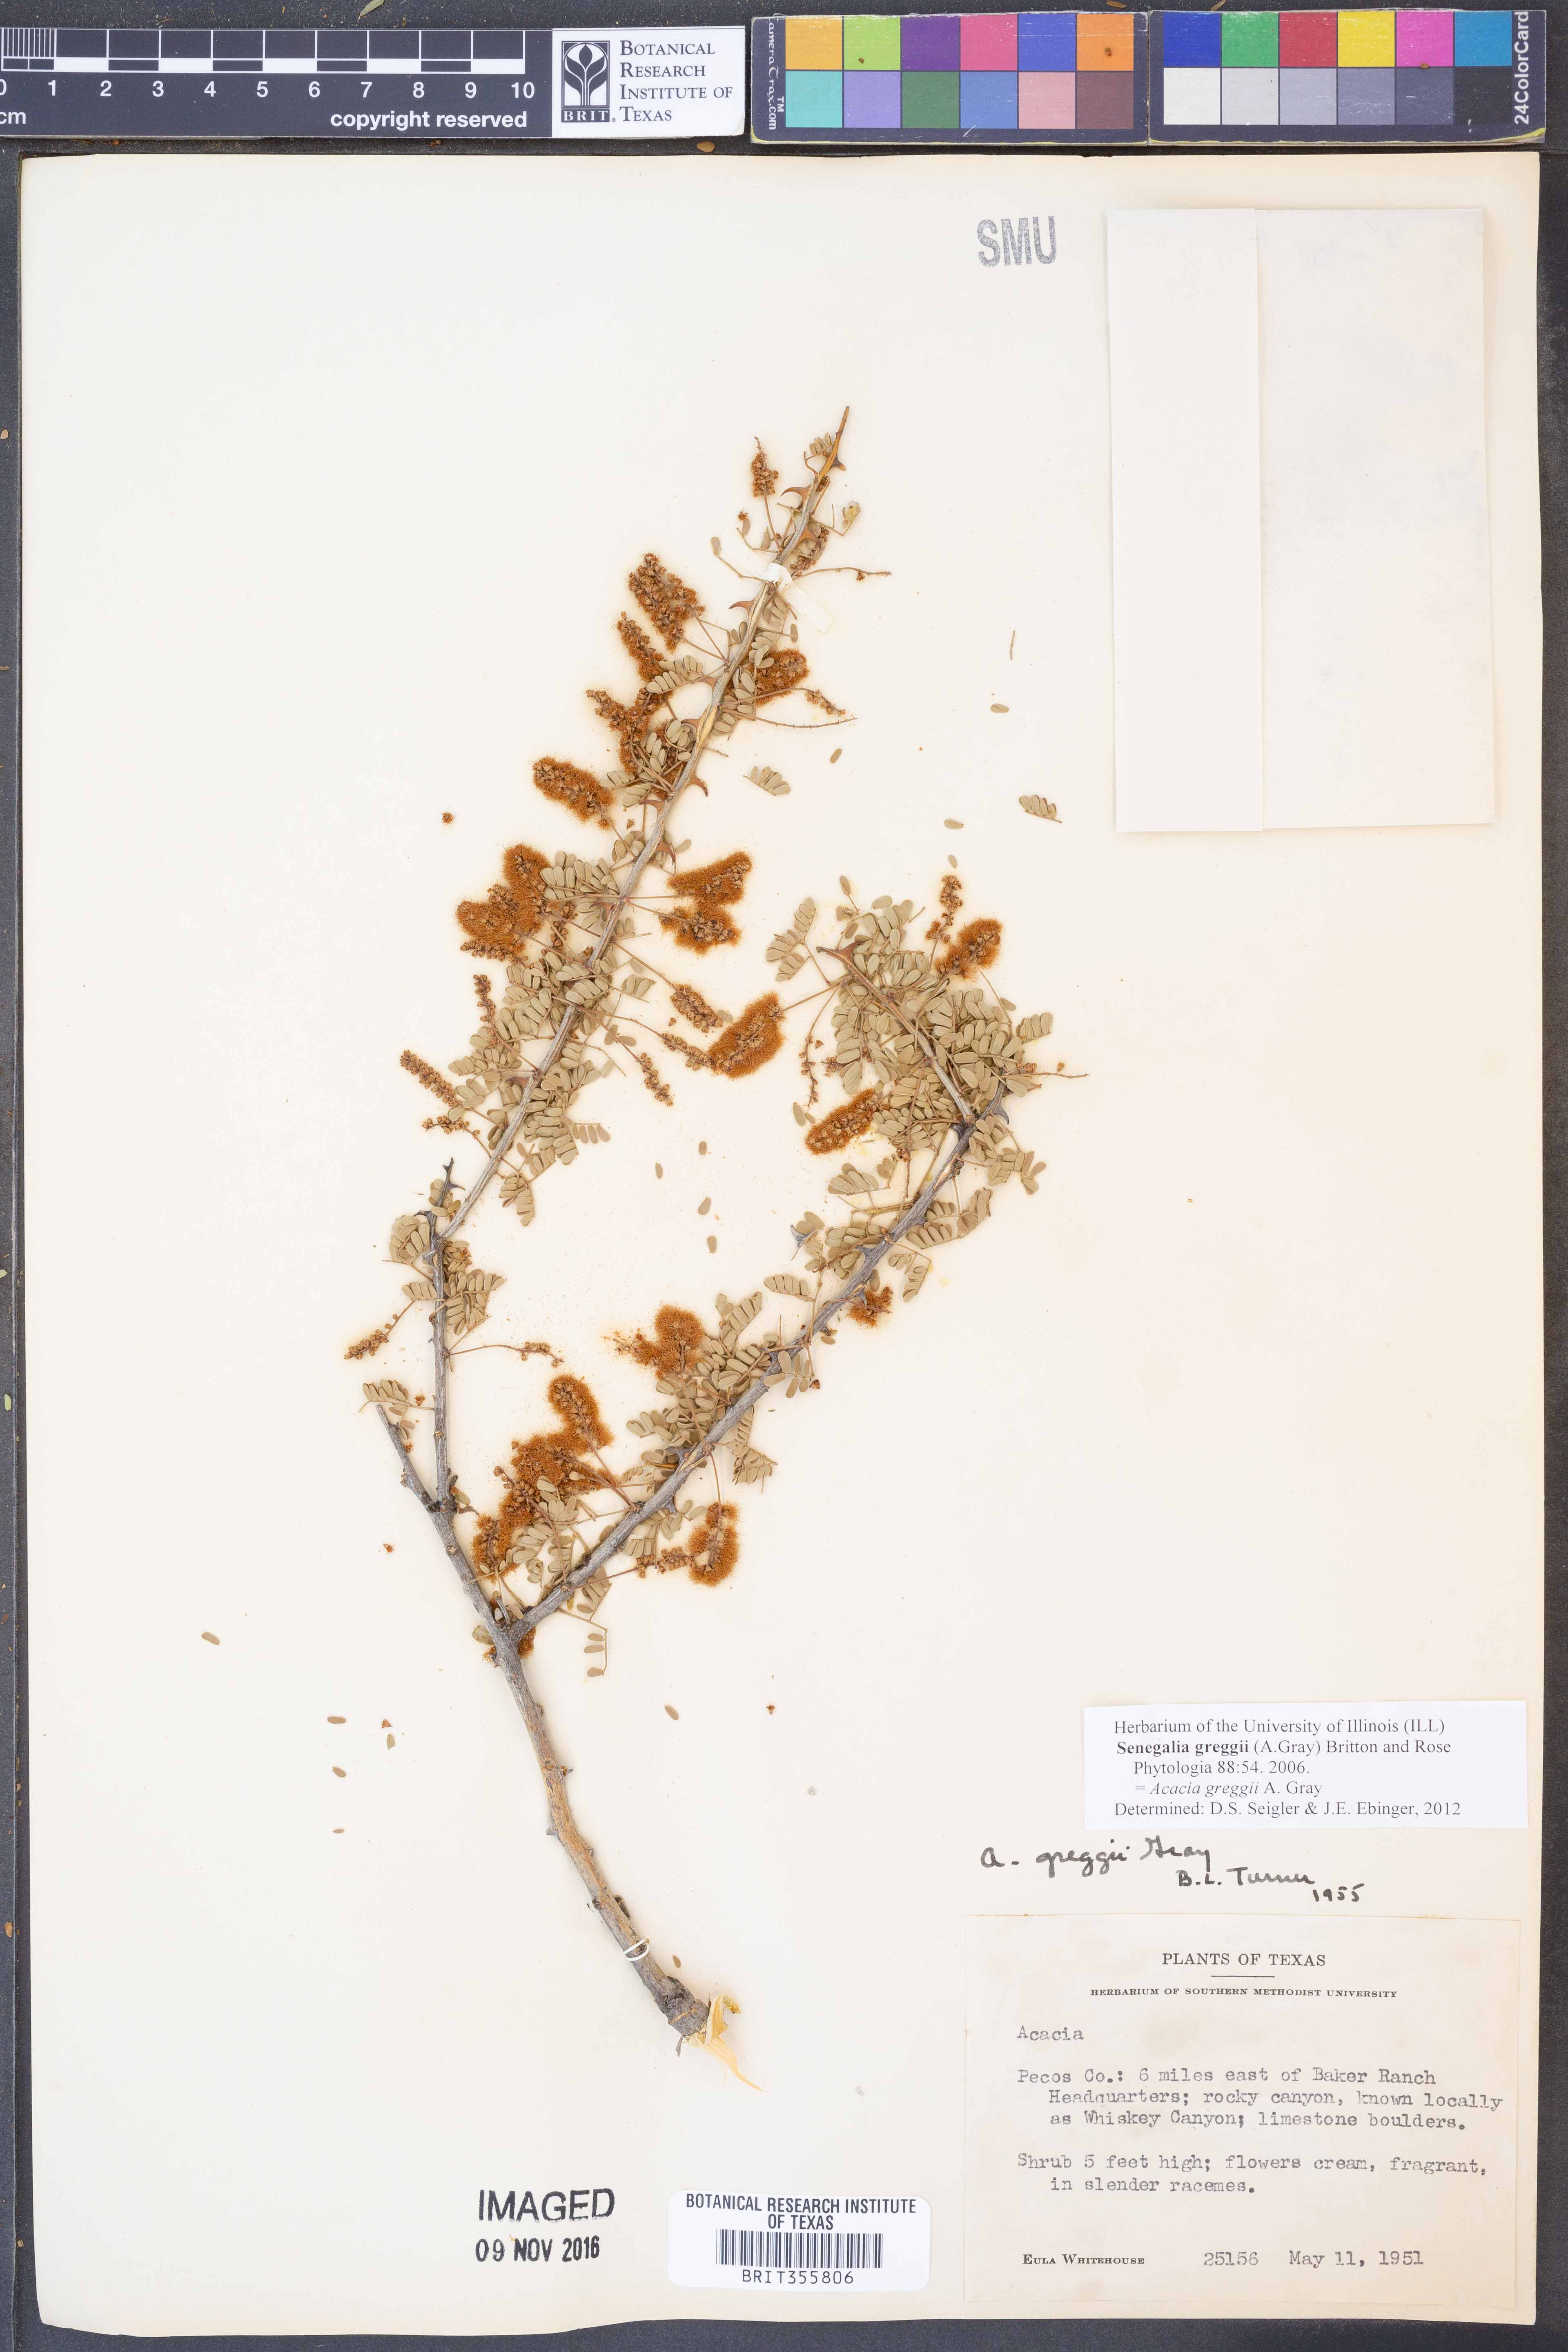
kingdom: Plantae
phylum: Tracheophyta
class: Magnoliopsida
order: Fabales
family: Fabaceae
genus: Senegalia
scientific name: Senegalia greggii
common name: Texas-mimosa
